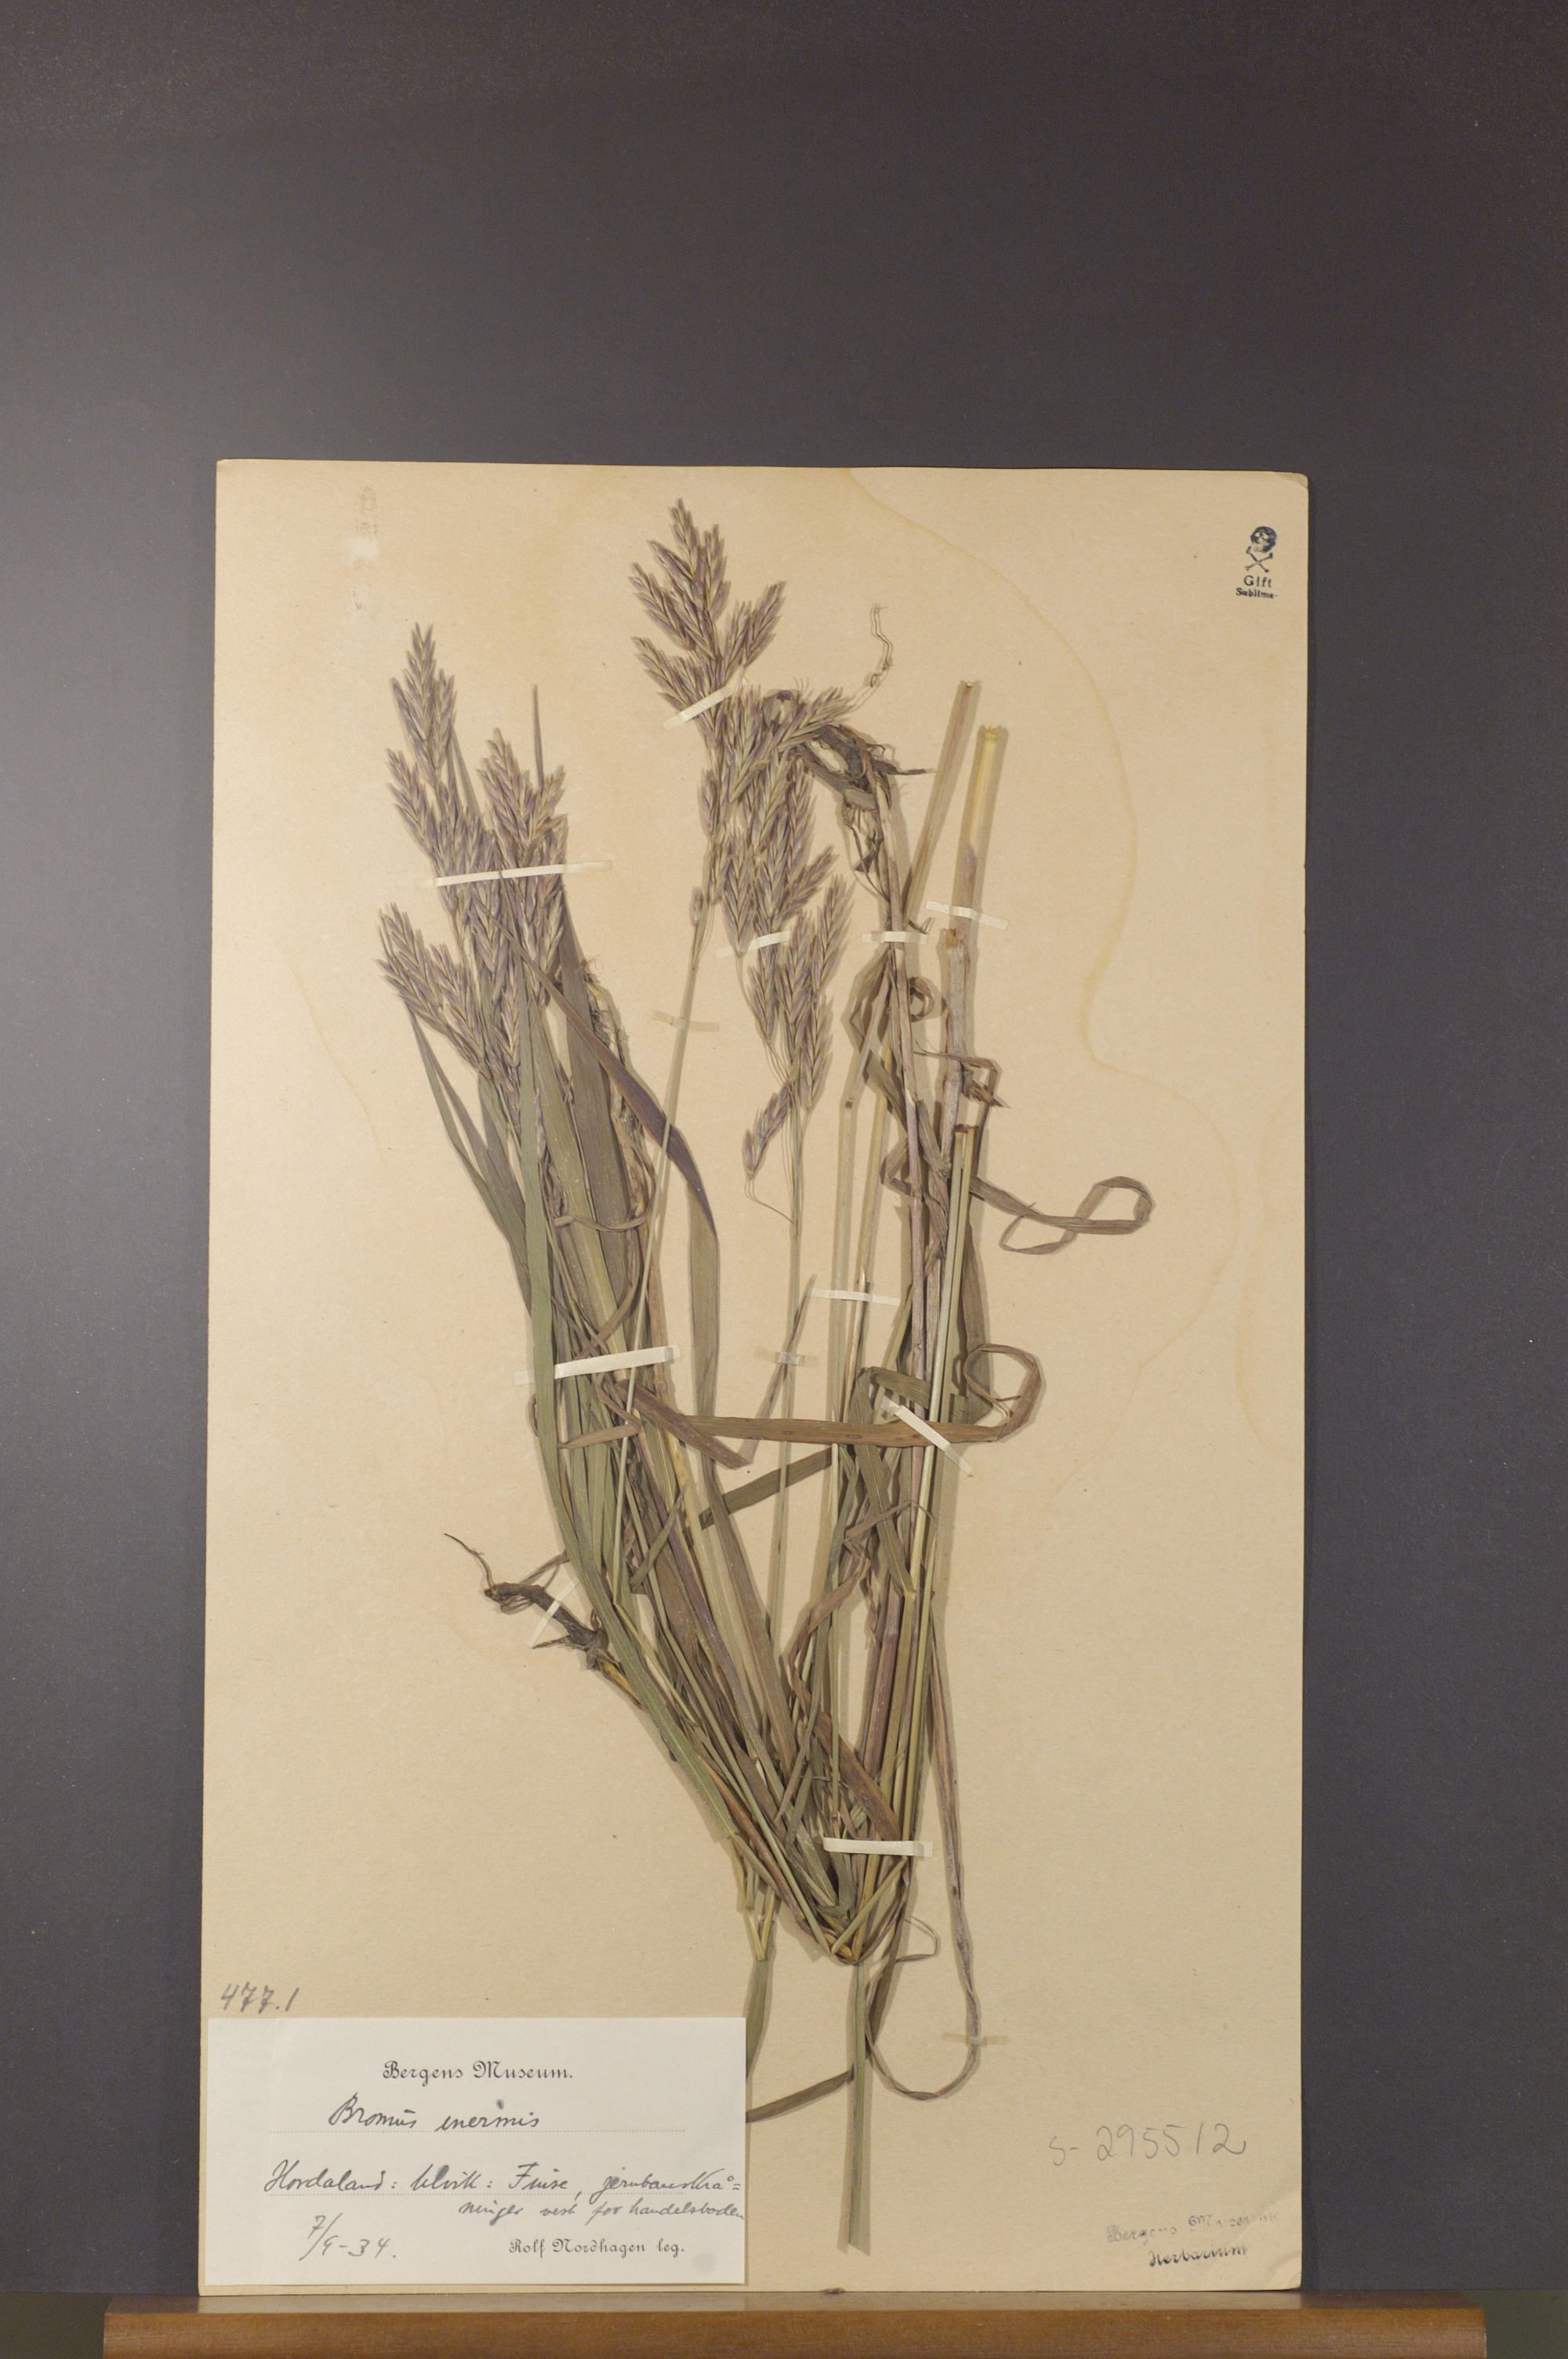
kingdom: Plantae
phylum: Tracheophyta
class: Liliopsida
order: Poales
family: Poaceae
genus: Bromus
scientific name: Bromus inermis
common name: Smooth brome
